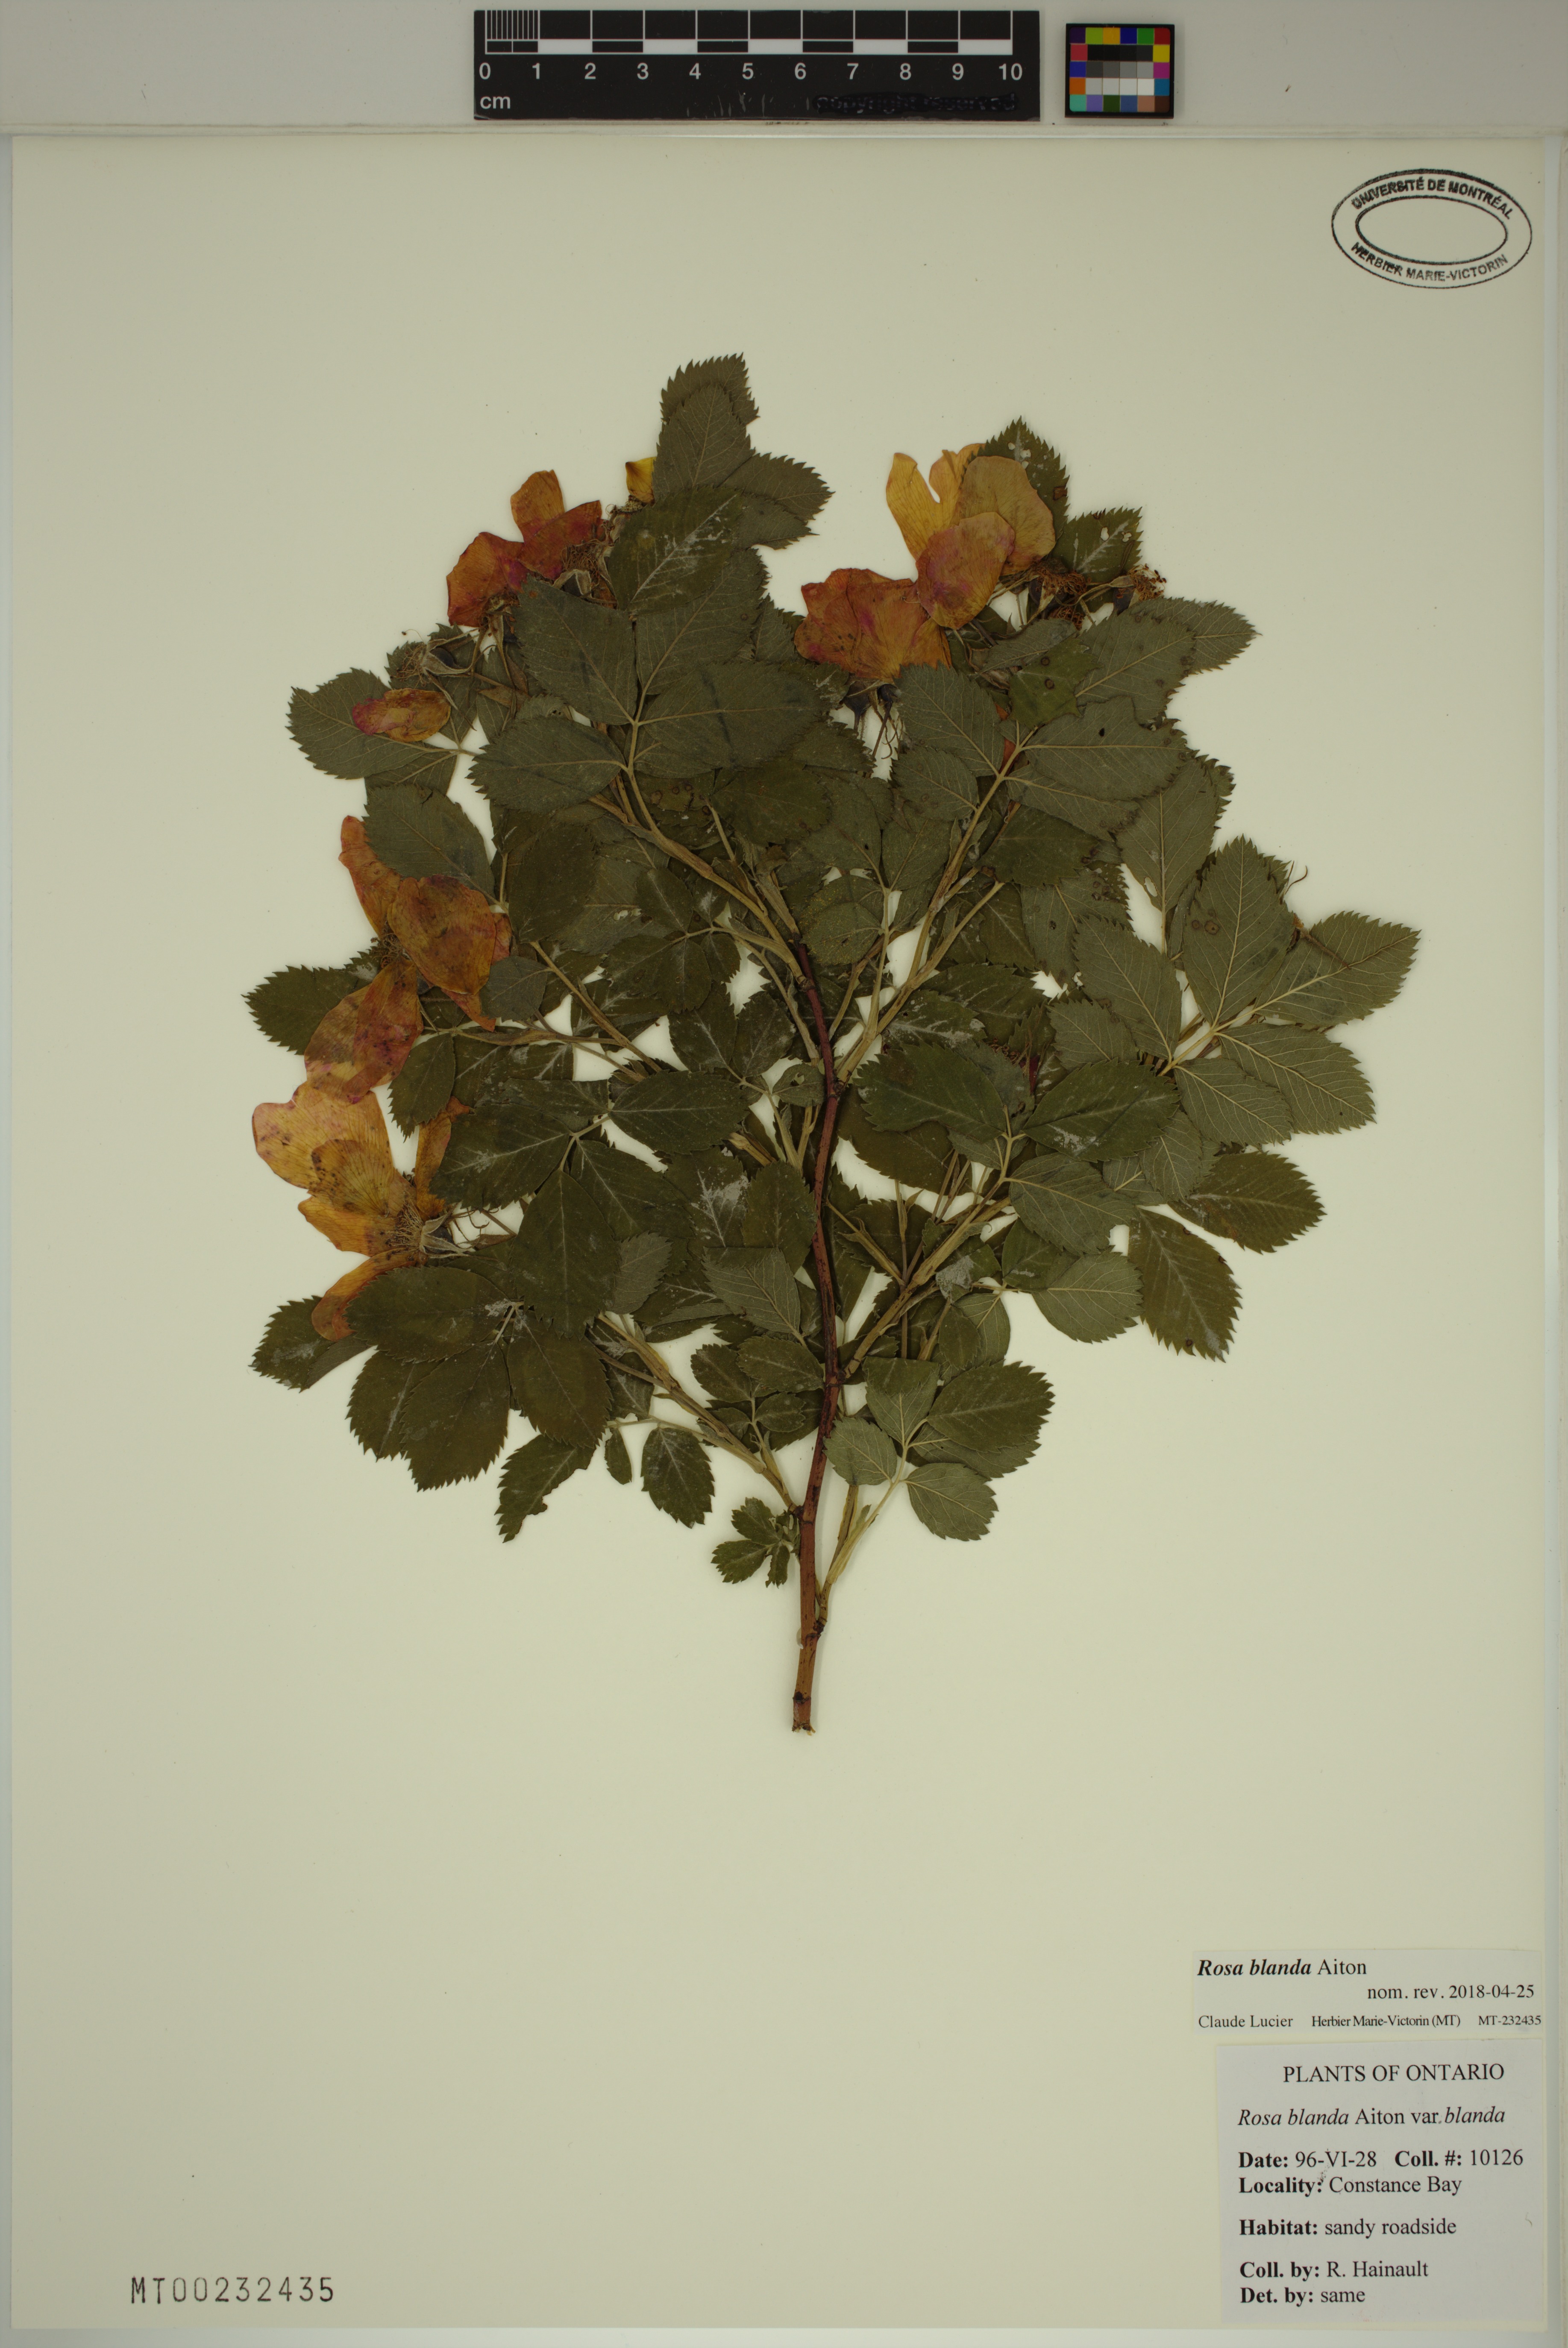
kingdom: Plantae
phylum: Tracheophyta
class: Magnoliopsida
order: Rosales
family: Rosaceae
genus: Rosa
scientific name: Rosa blanda
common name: Smooth rose
